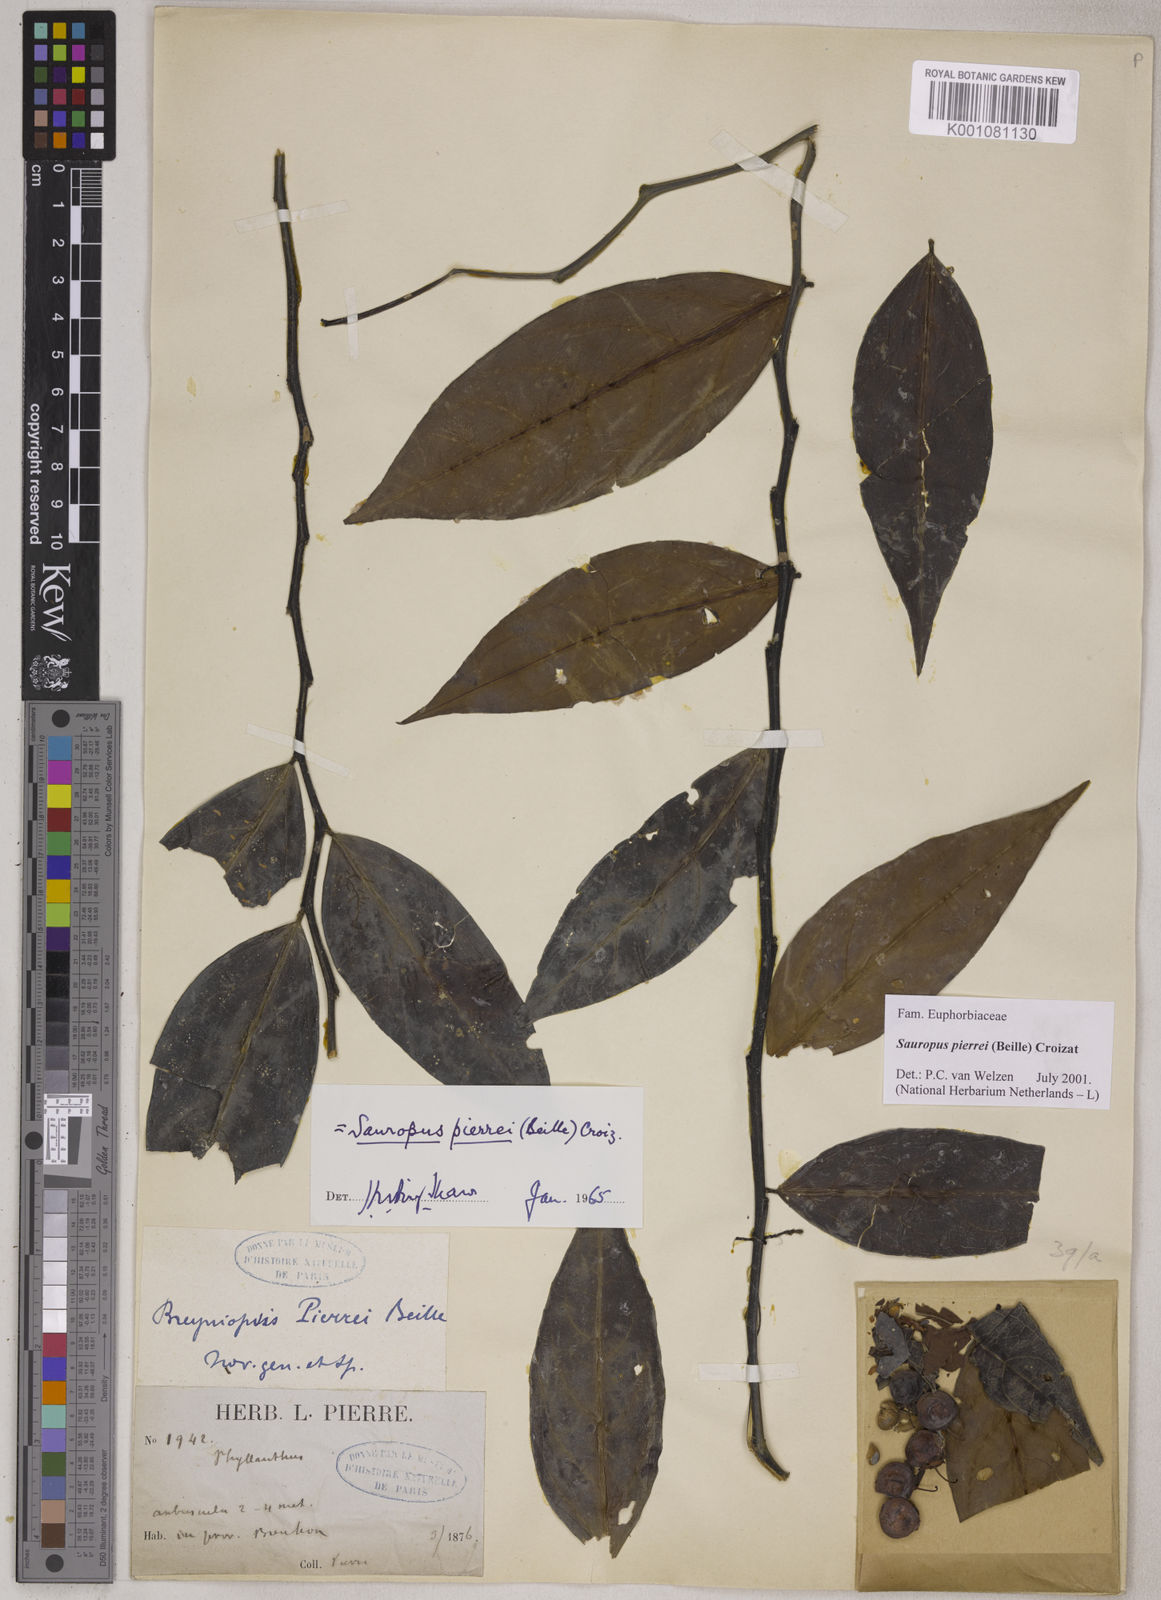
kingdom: Plantae
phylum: Tracheophyta
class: Magnoliopsida
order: Malpighiales
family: Phyllanthaceae
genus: Breynia
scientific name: Breynia pierrei
